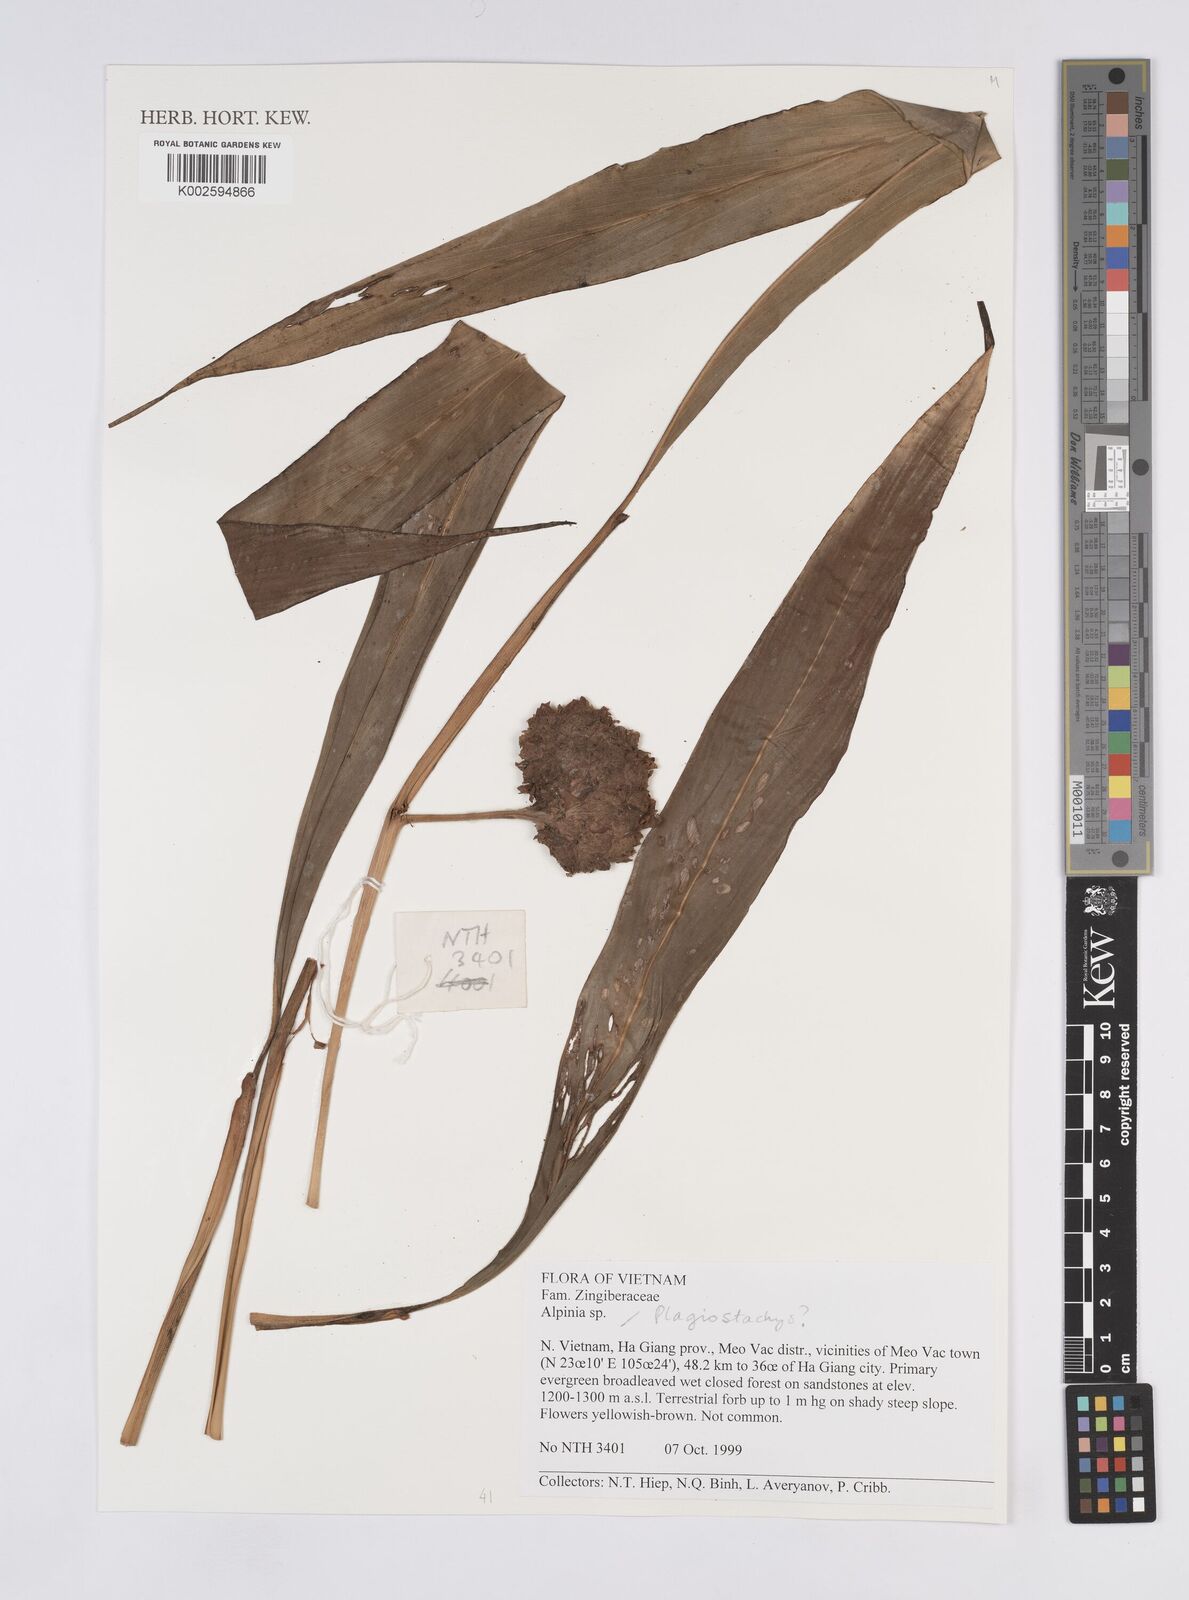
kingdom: Plantae
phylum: Tracheophyta
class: Liliopsida
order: Zingiberales
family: Zingiberaceae
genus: Plagiostachys
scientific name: Plagiostachys
